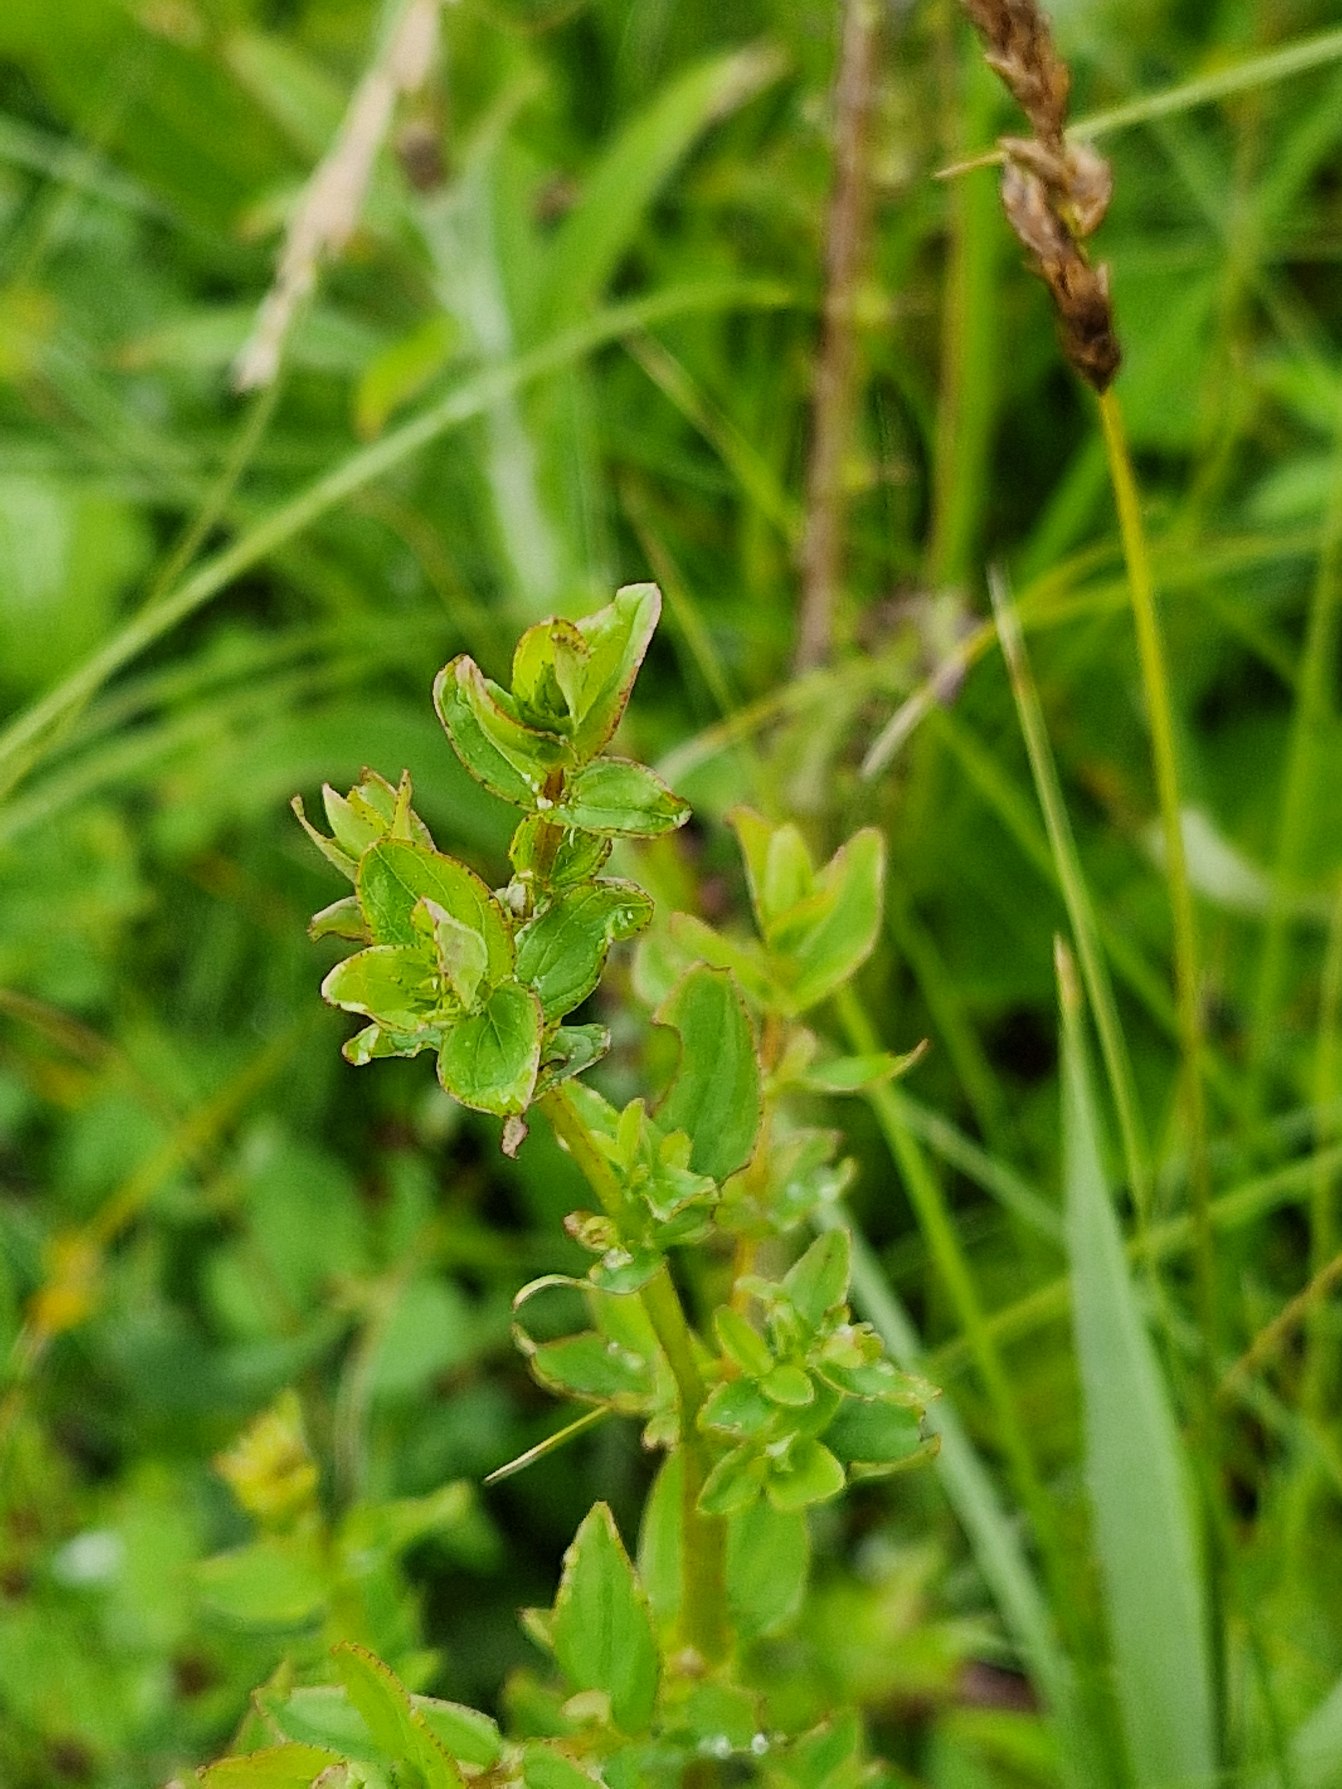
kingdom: Plantae
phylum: Tracheophyta
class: Magnoliopsida
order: Malpighiales
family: Hypericaceae
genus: Hypericum
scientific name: Hypericum tetrapterum
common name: Vinget perikon
